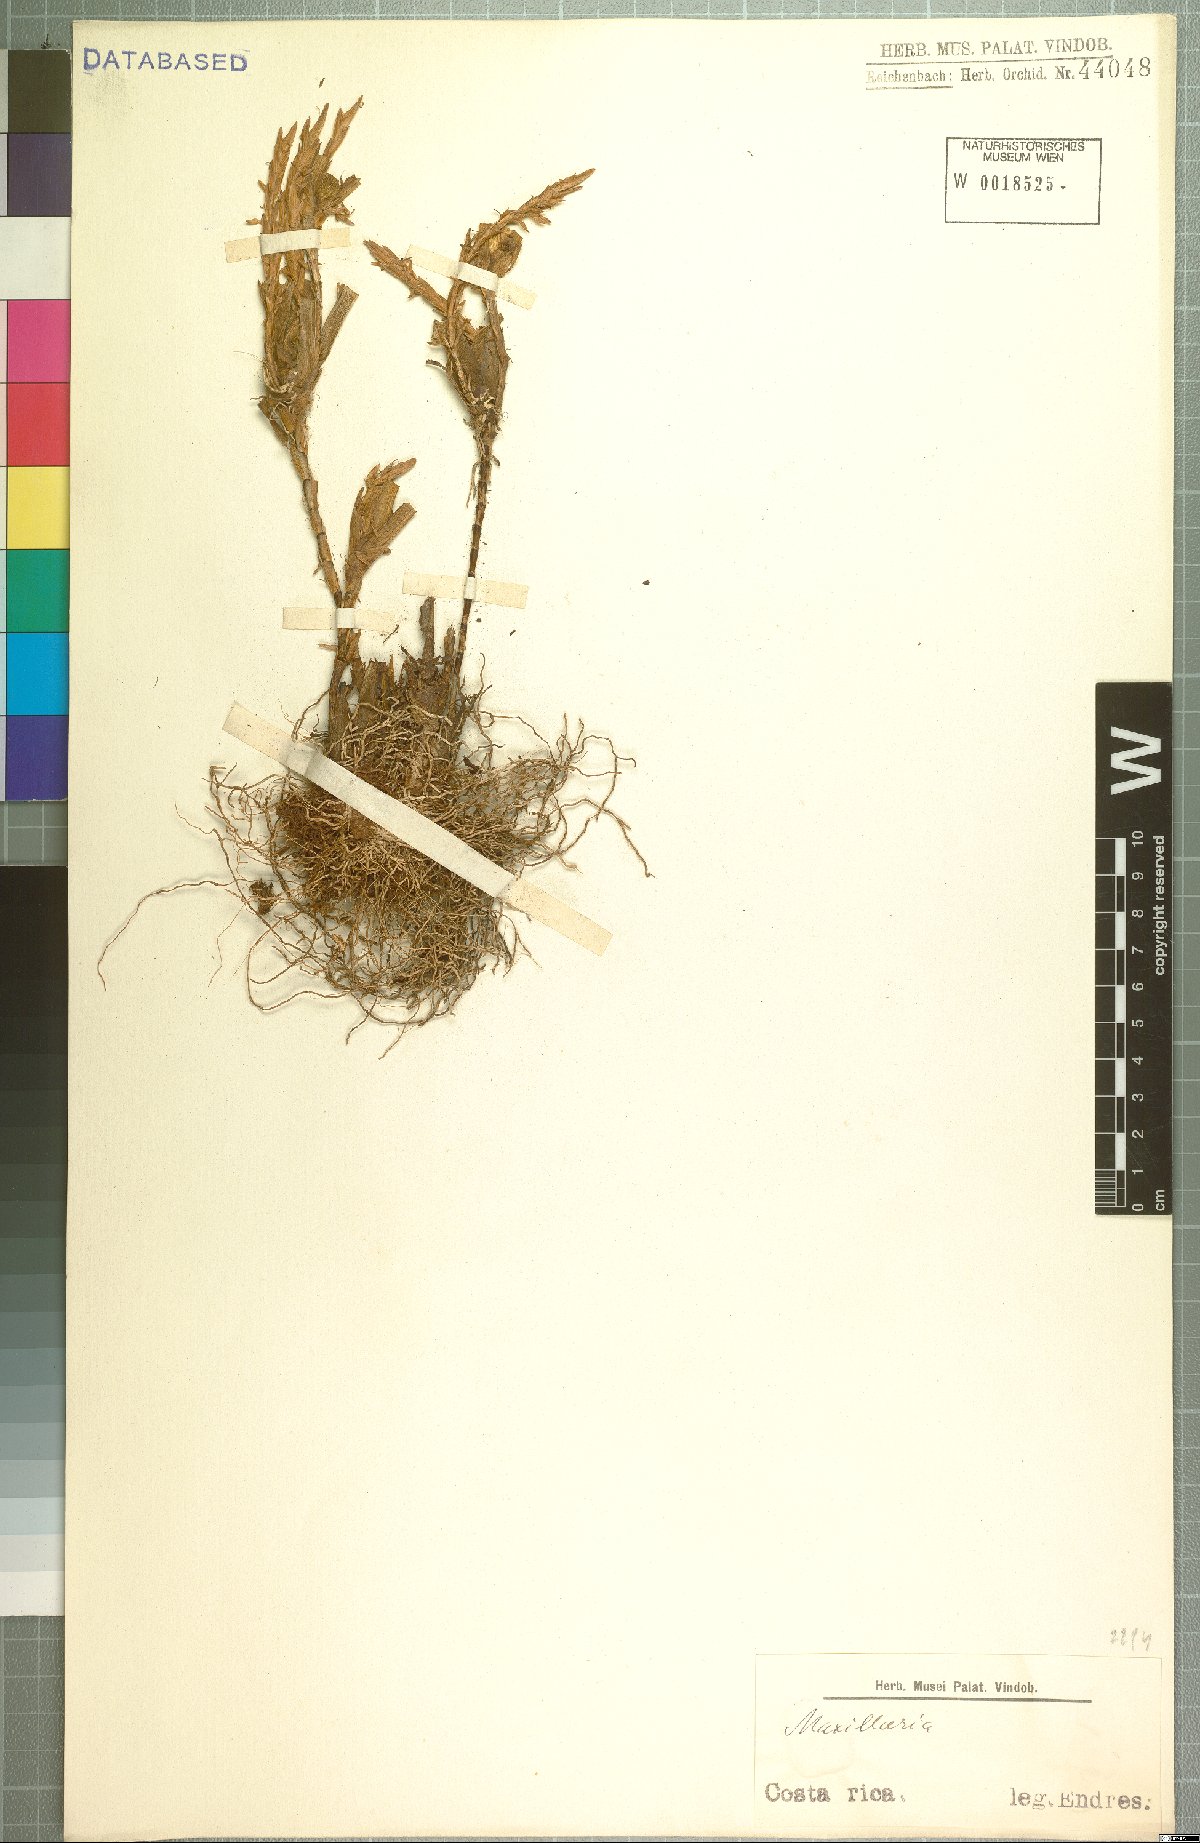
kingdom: Plantae
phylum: Tracheophyta
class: Liliopsida
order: Asparagales
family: Orchidaceae
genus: Maxillaria
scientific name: Maxillaria
